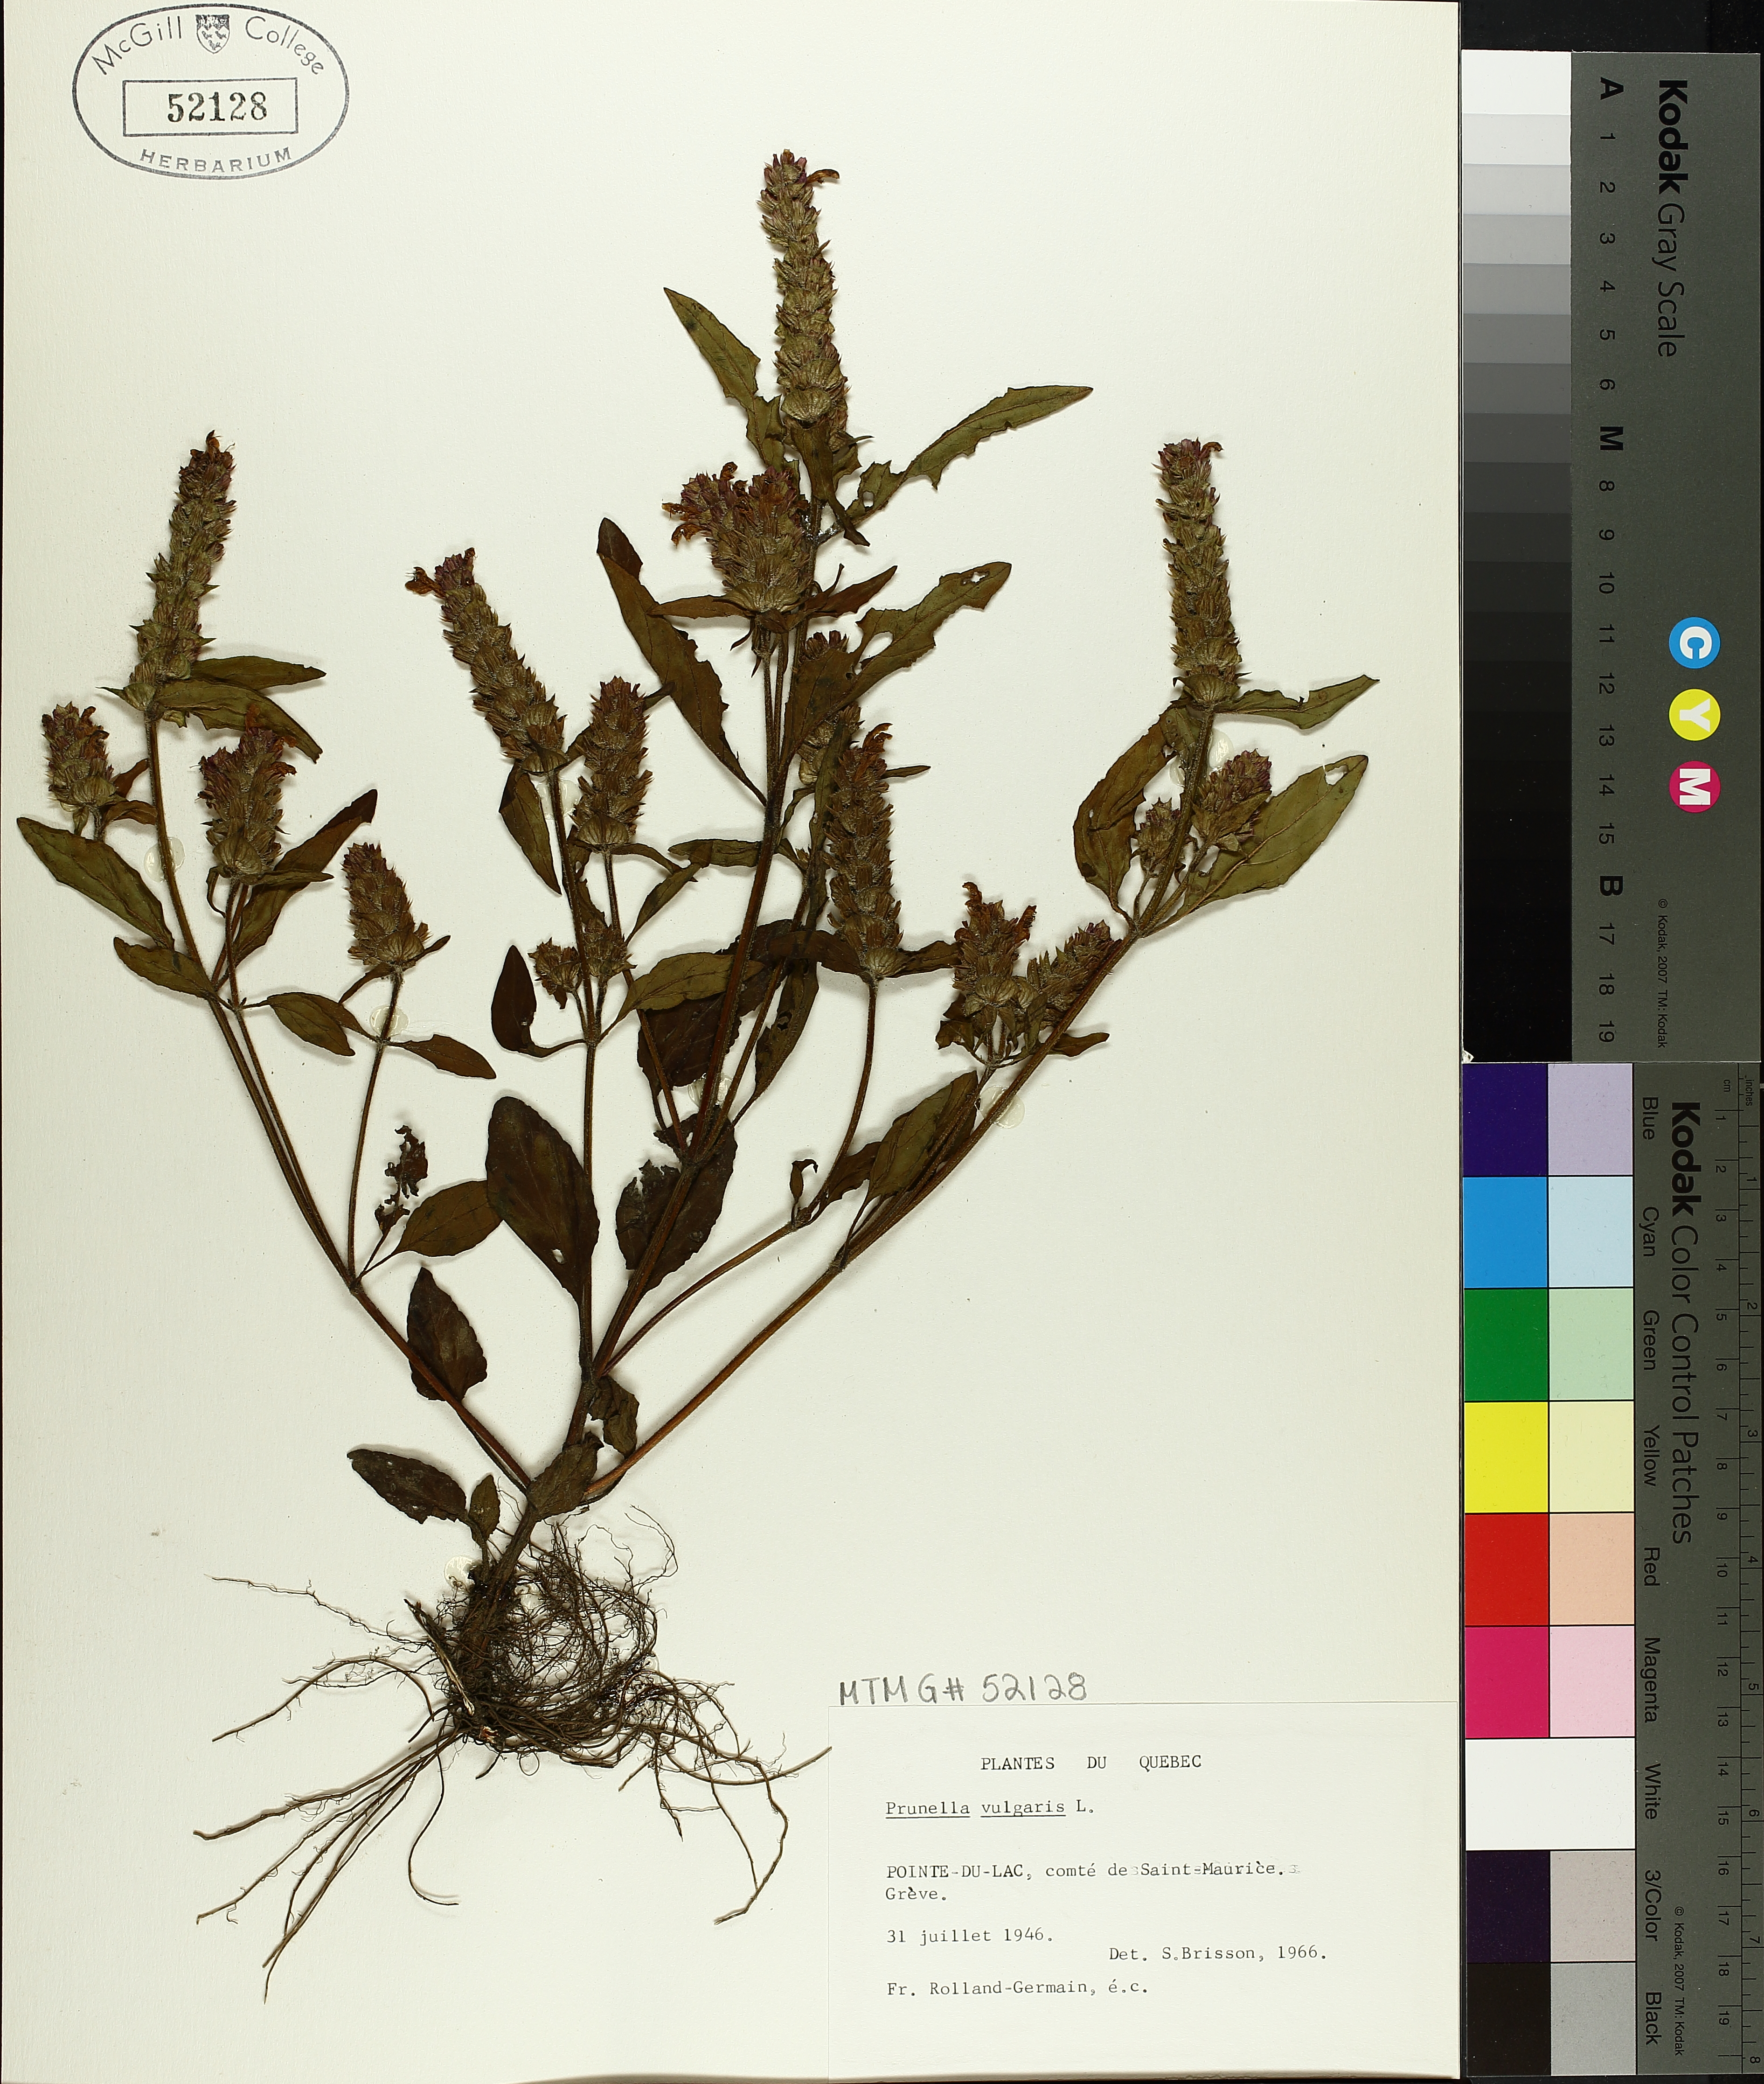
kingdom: Plantae
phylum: Tracheophyta
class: Magnoliopsida
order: Lamiales
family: Lamiaceae
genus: Prunella
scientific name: Prunella vulgaris
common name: Heal-all
